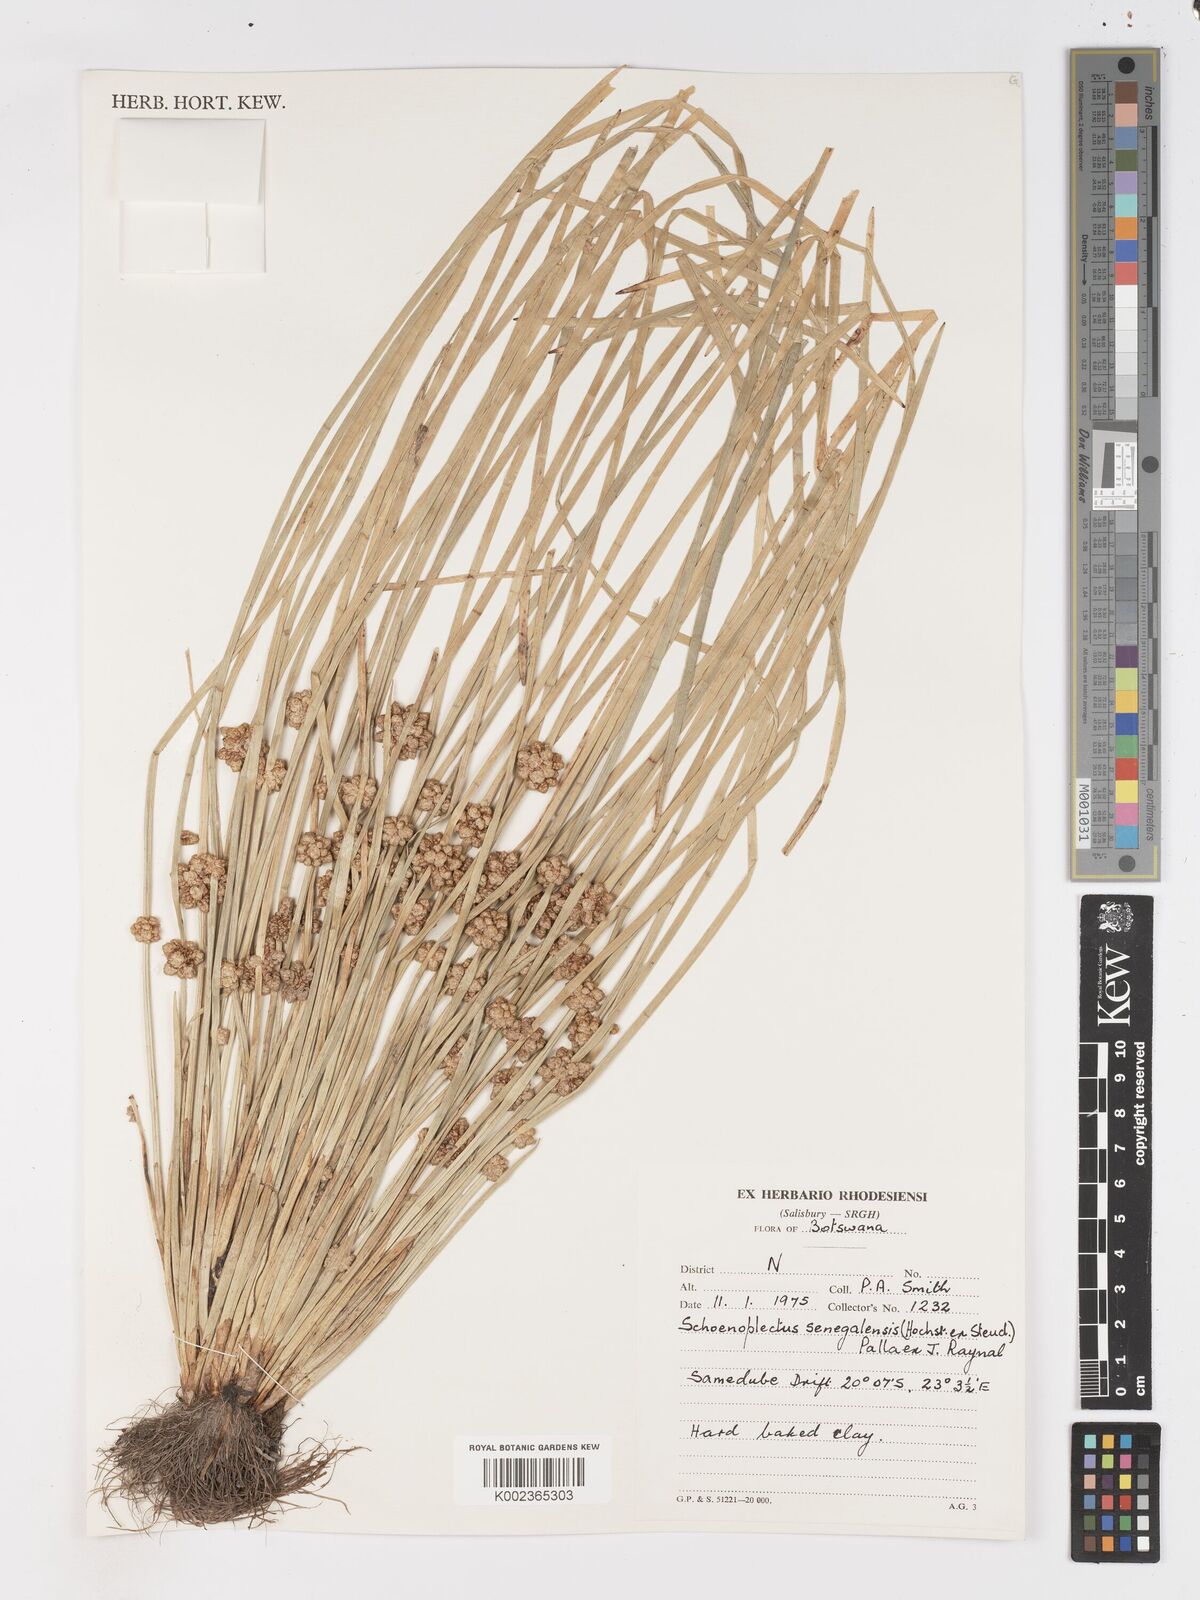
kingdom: Plantae
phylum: Tracheophyta
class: Liliopsida
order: Poales
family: Cyperaceae
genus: Schoenoplectiella
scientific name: Schoenoplectiella senegalensis
